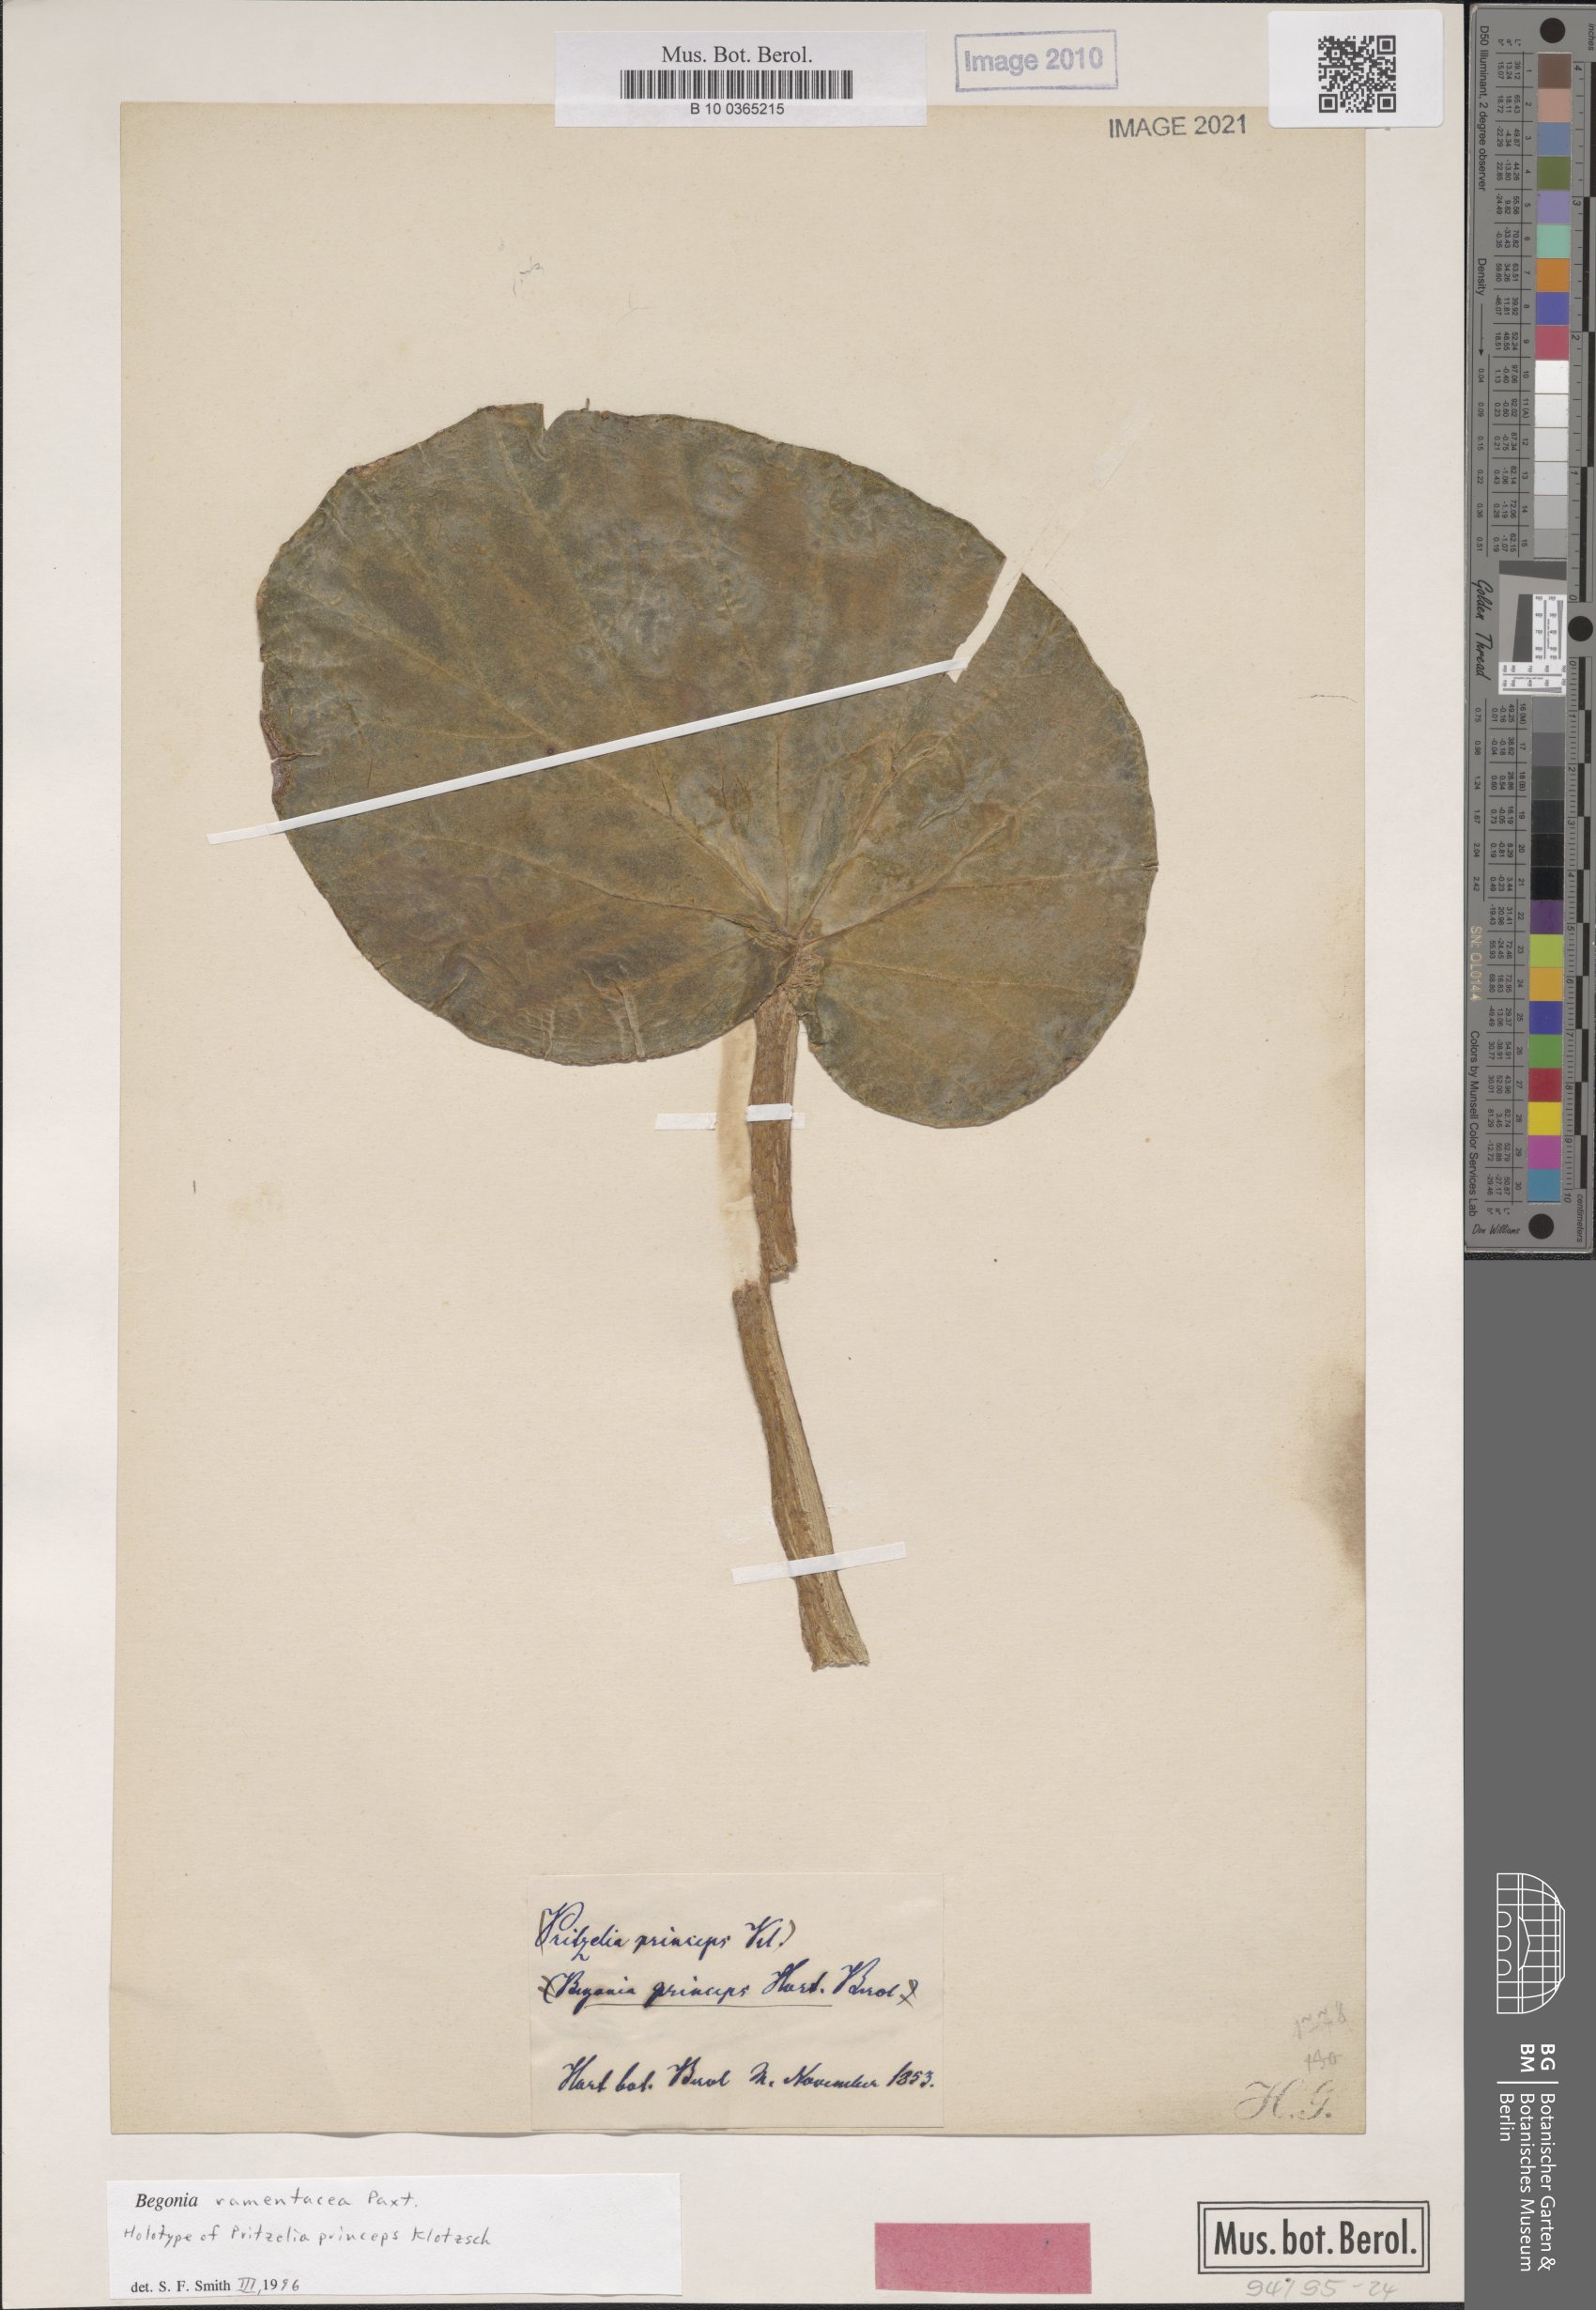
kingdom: Plantae
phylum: Tracheophyta
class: Magnoliopsida
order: Cucurbitales
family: Begoniaceae
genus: Begonia
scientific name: Begonia ramentacea
